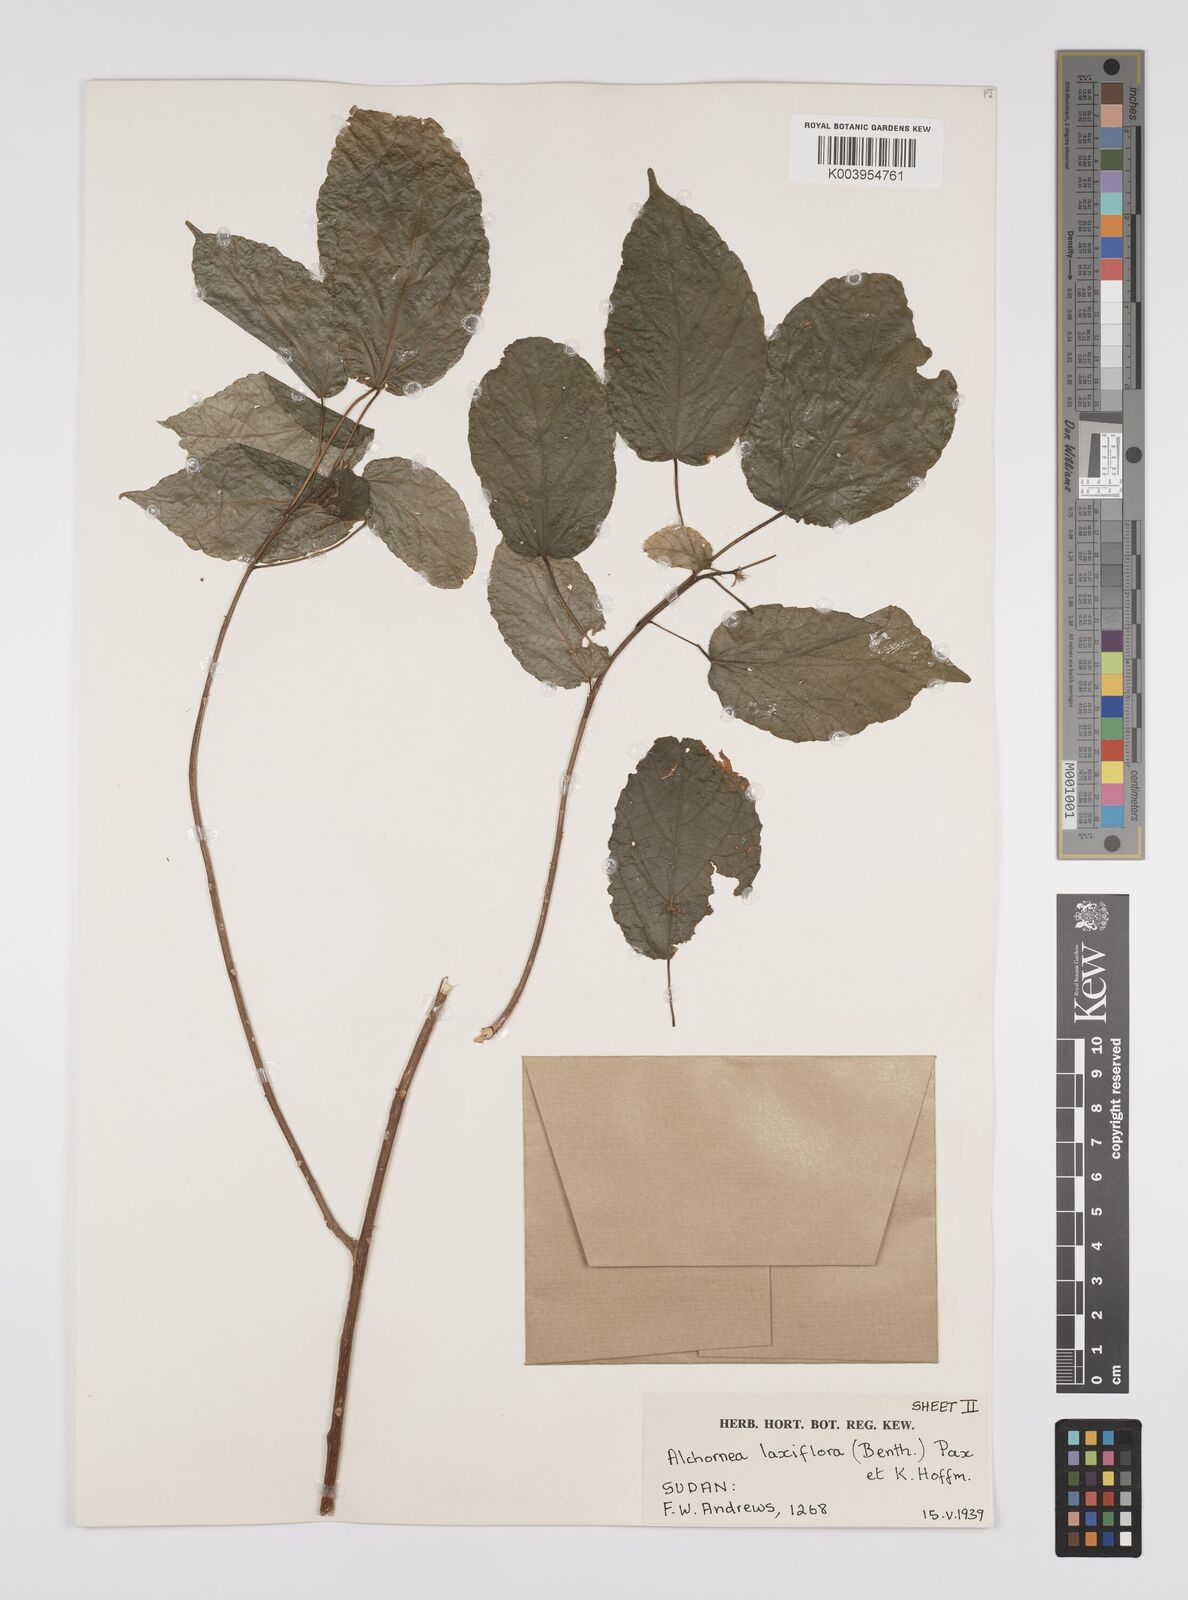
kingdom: Plantae
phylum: Tracheophyta
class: Magnoliopsida
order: Malpighiales
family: Euphorbiaceae
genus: Alchornea
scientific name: Alchornea laxiflora
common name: Lowveld bead-string
